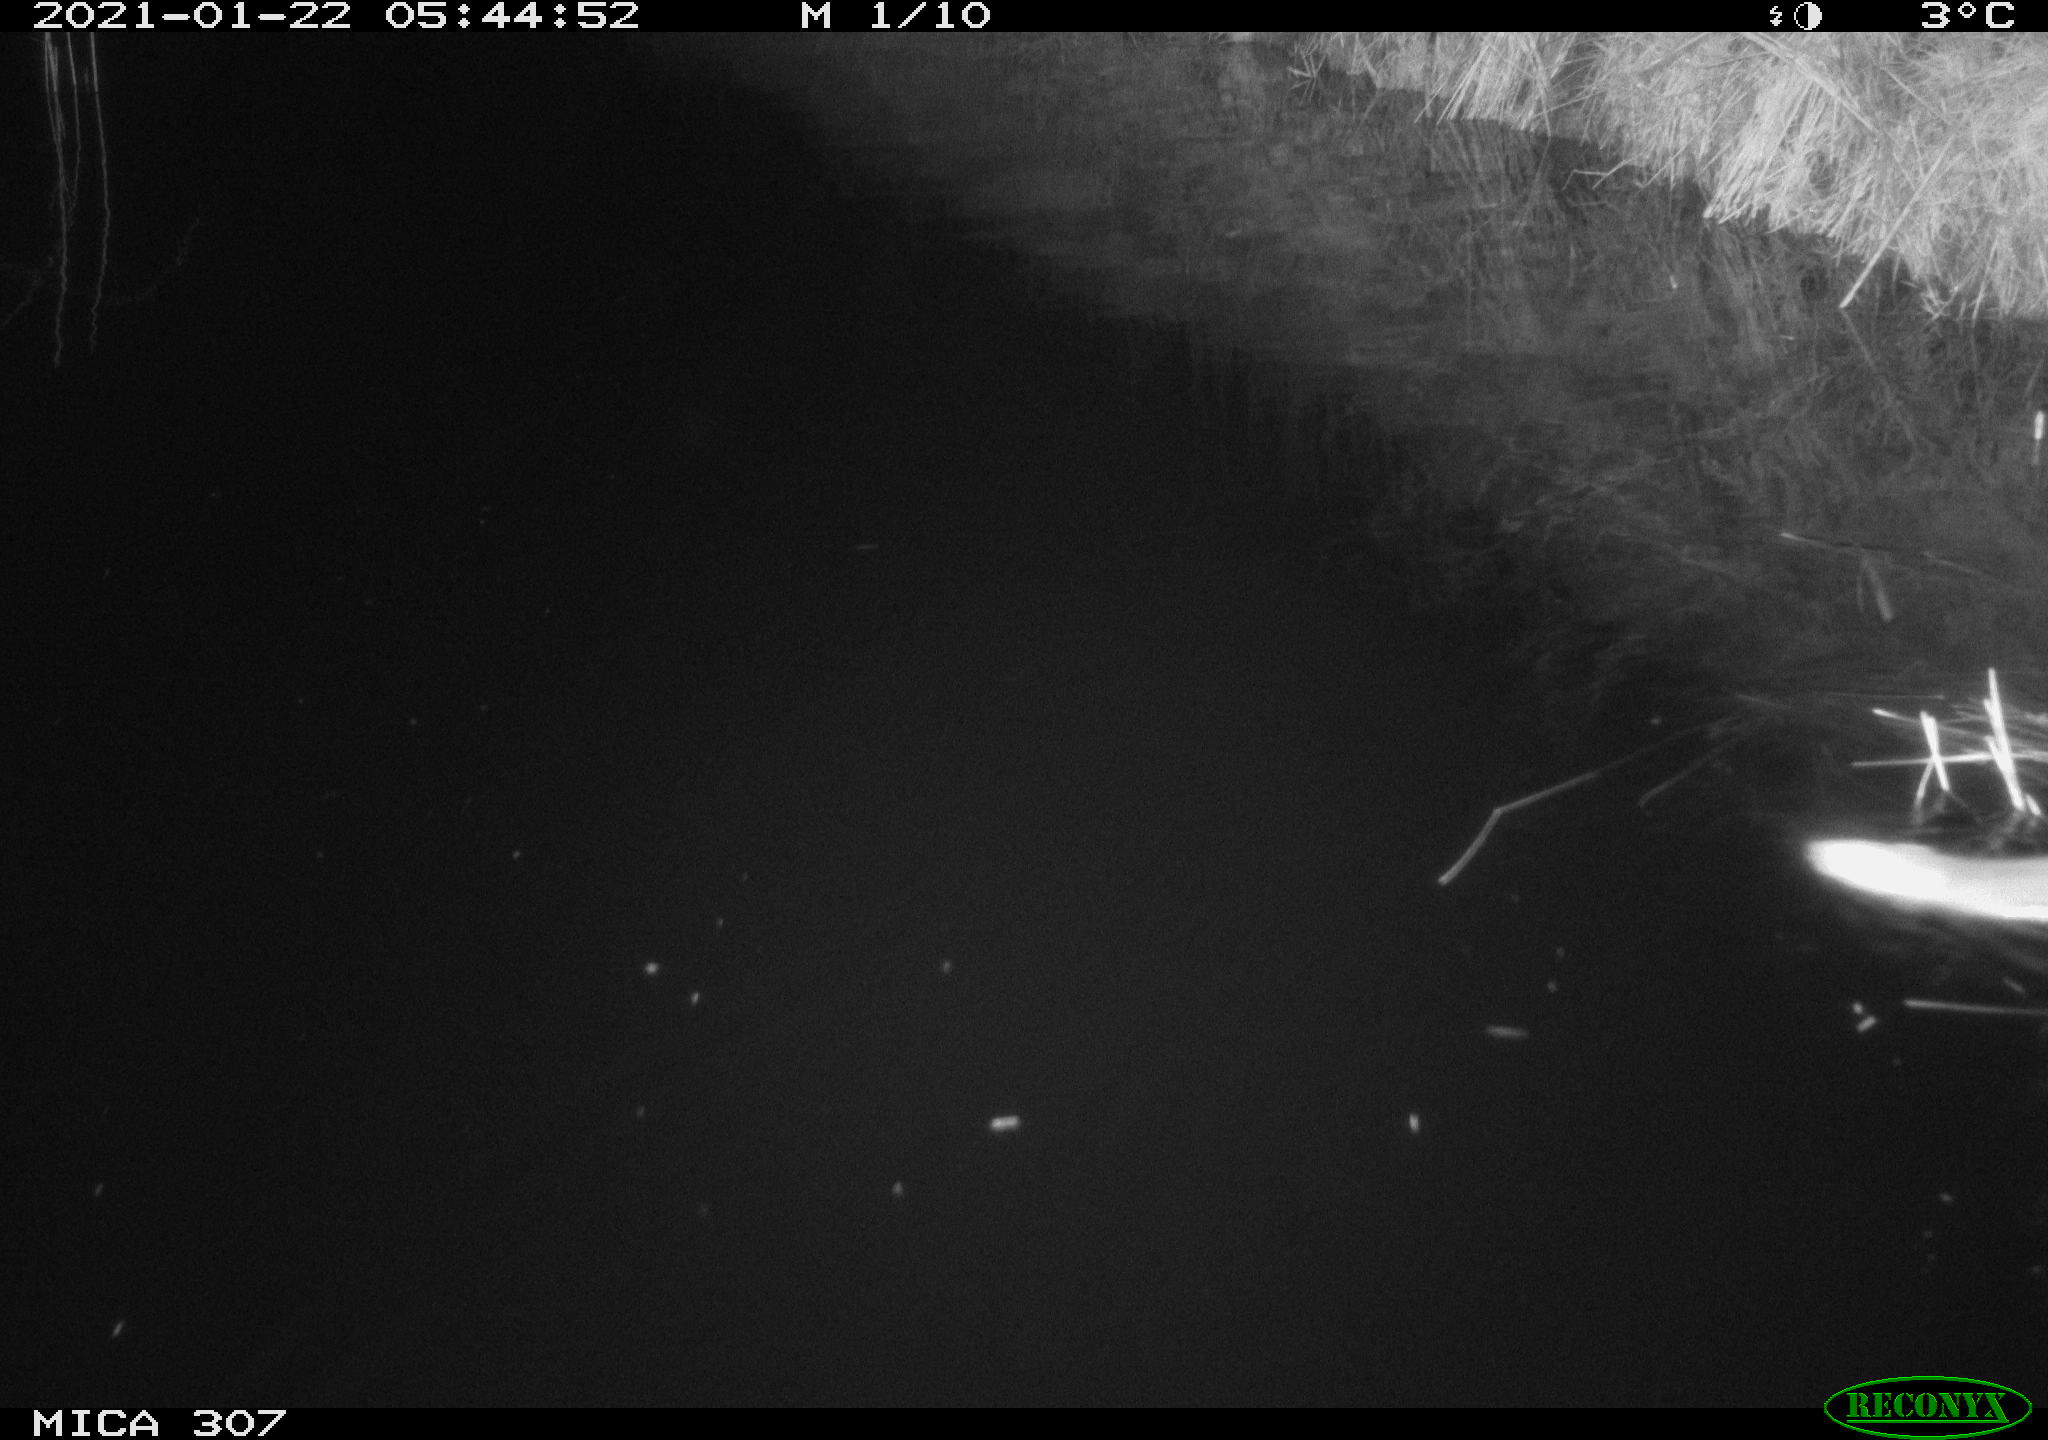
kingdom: Animalia
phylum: Chordata
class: Mammalia
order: Rodentia
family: Muridae
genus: Rattus
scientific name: Rattus norvegicus
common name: Brown rat
